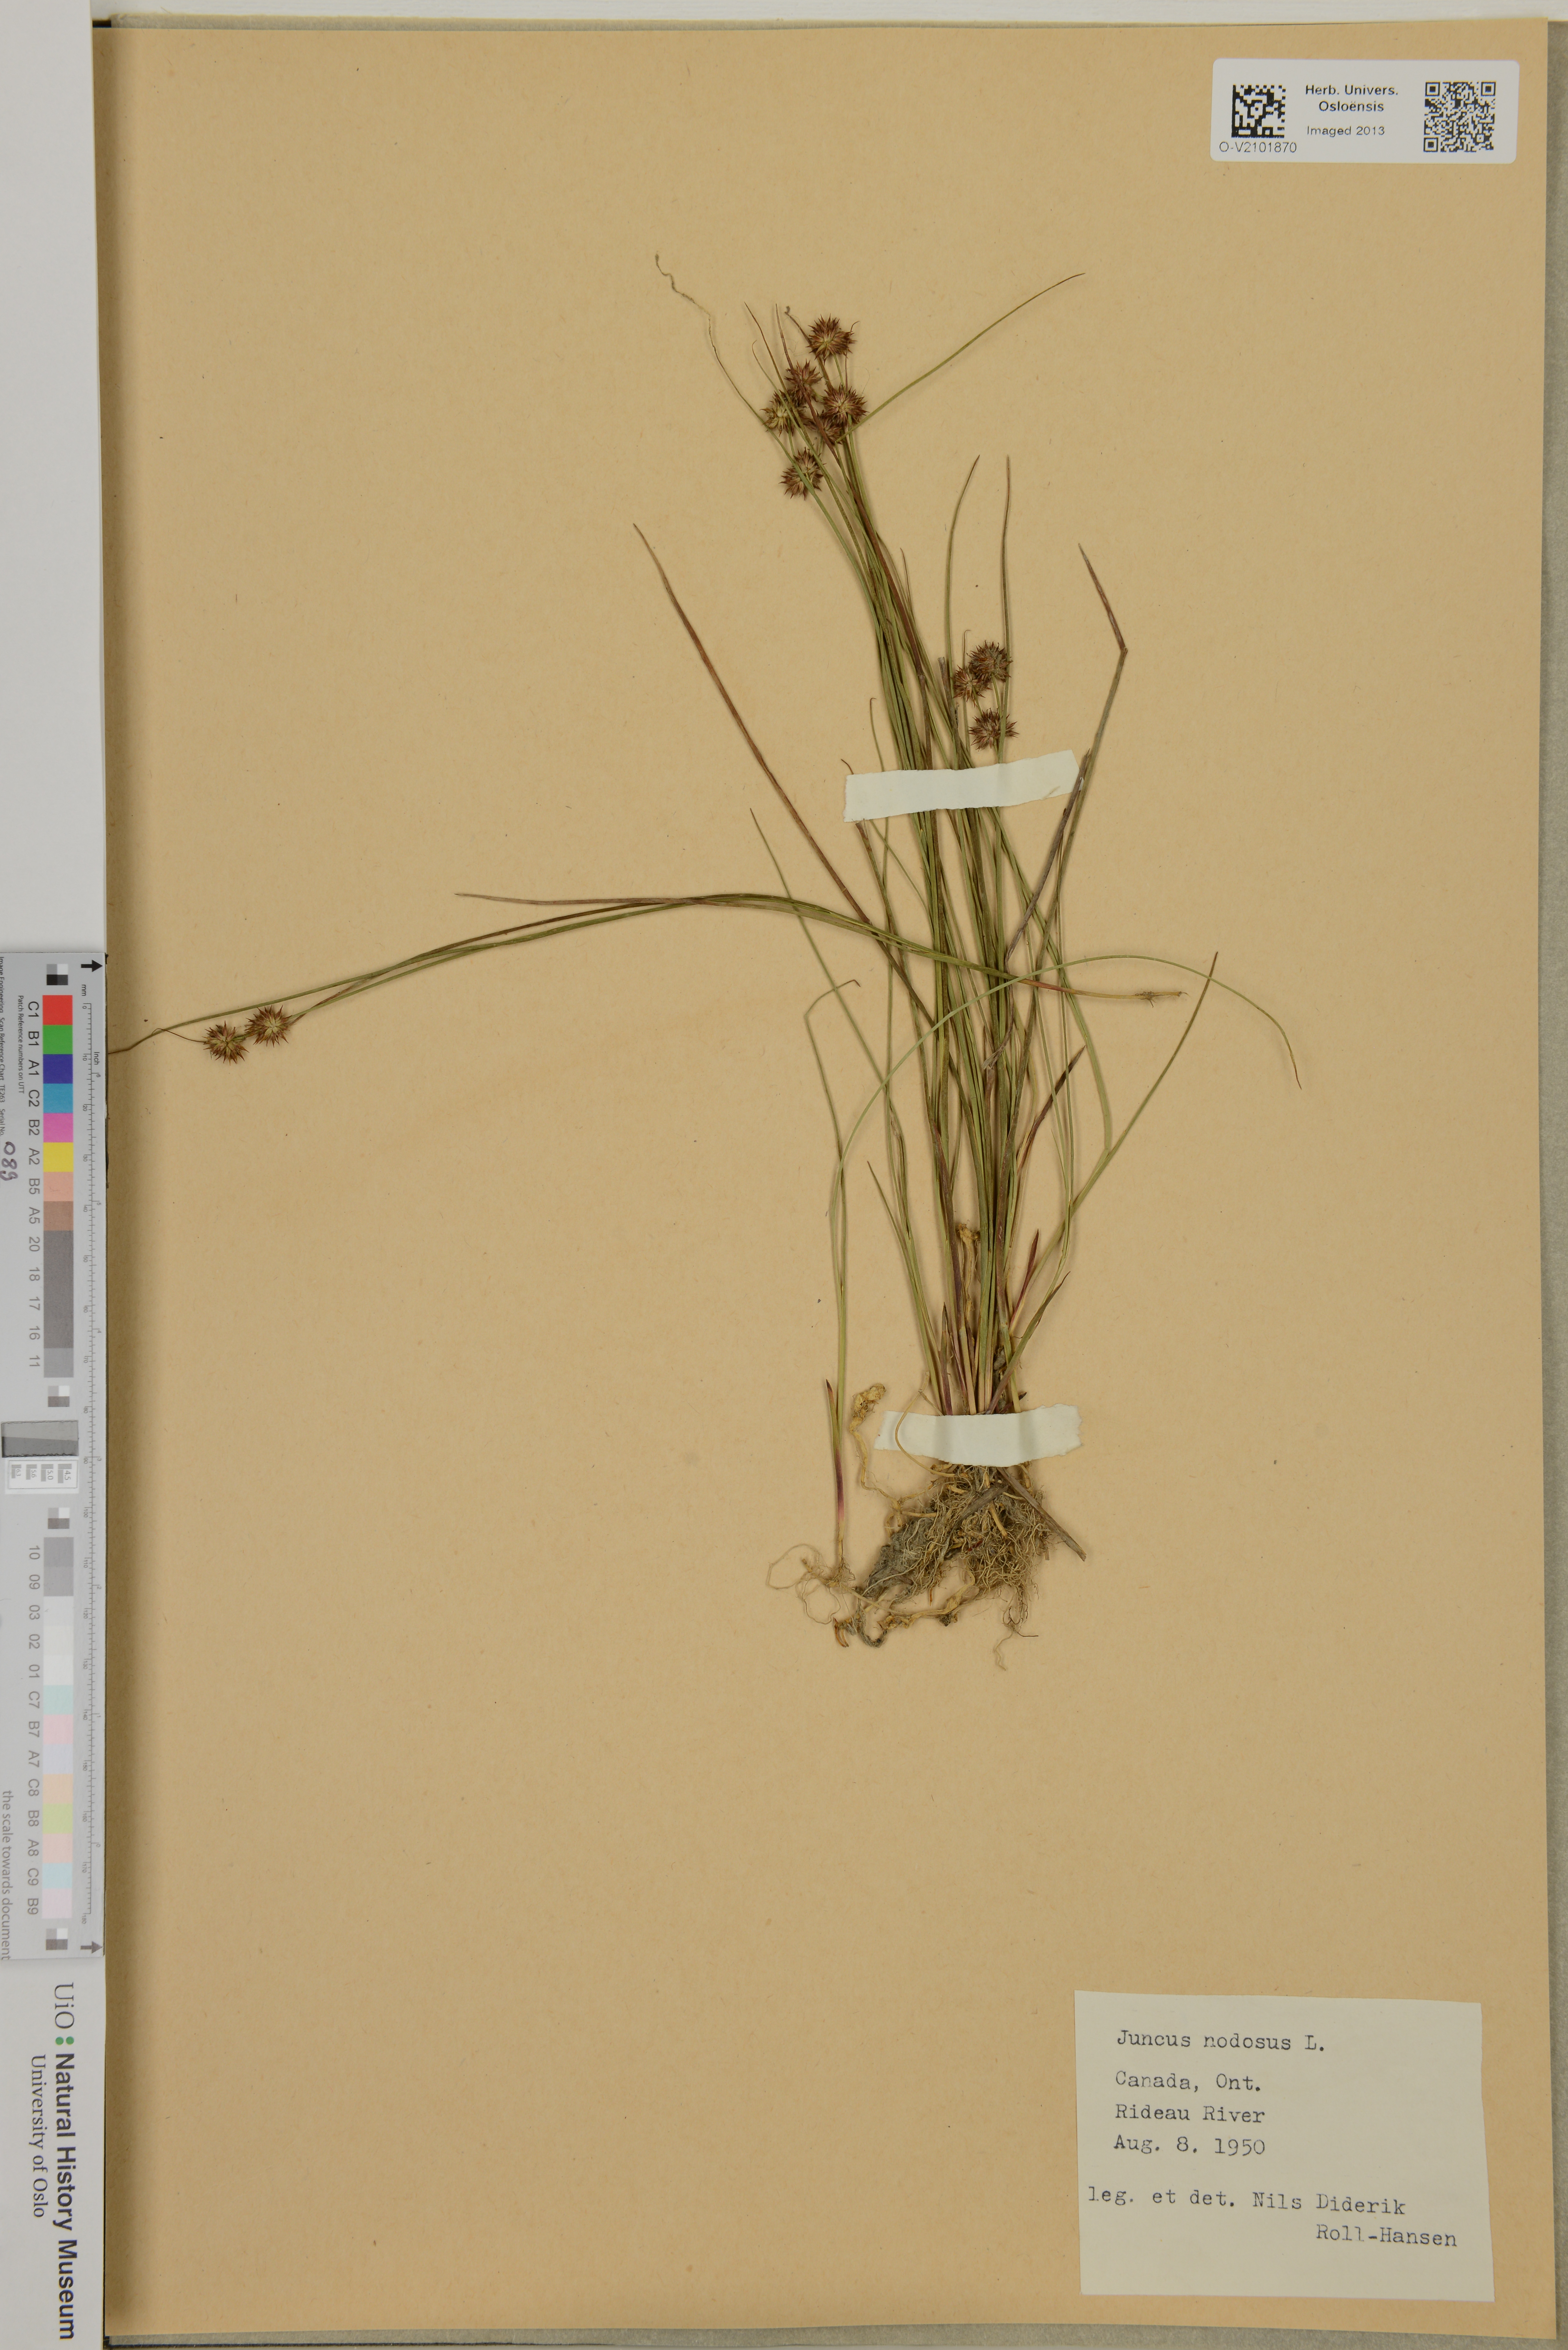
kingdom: Plantae
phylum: Tracheophyta
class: Liliopsida
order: Poales
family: Juncaceae
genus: Juncus
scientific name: Juncus nodosus
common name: Knotted rush
